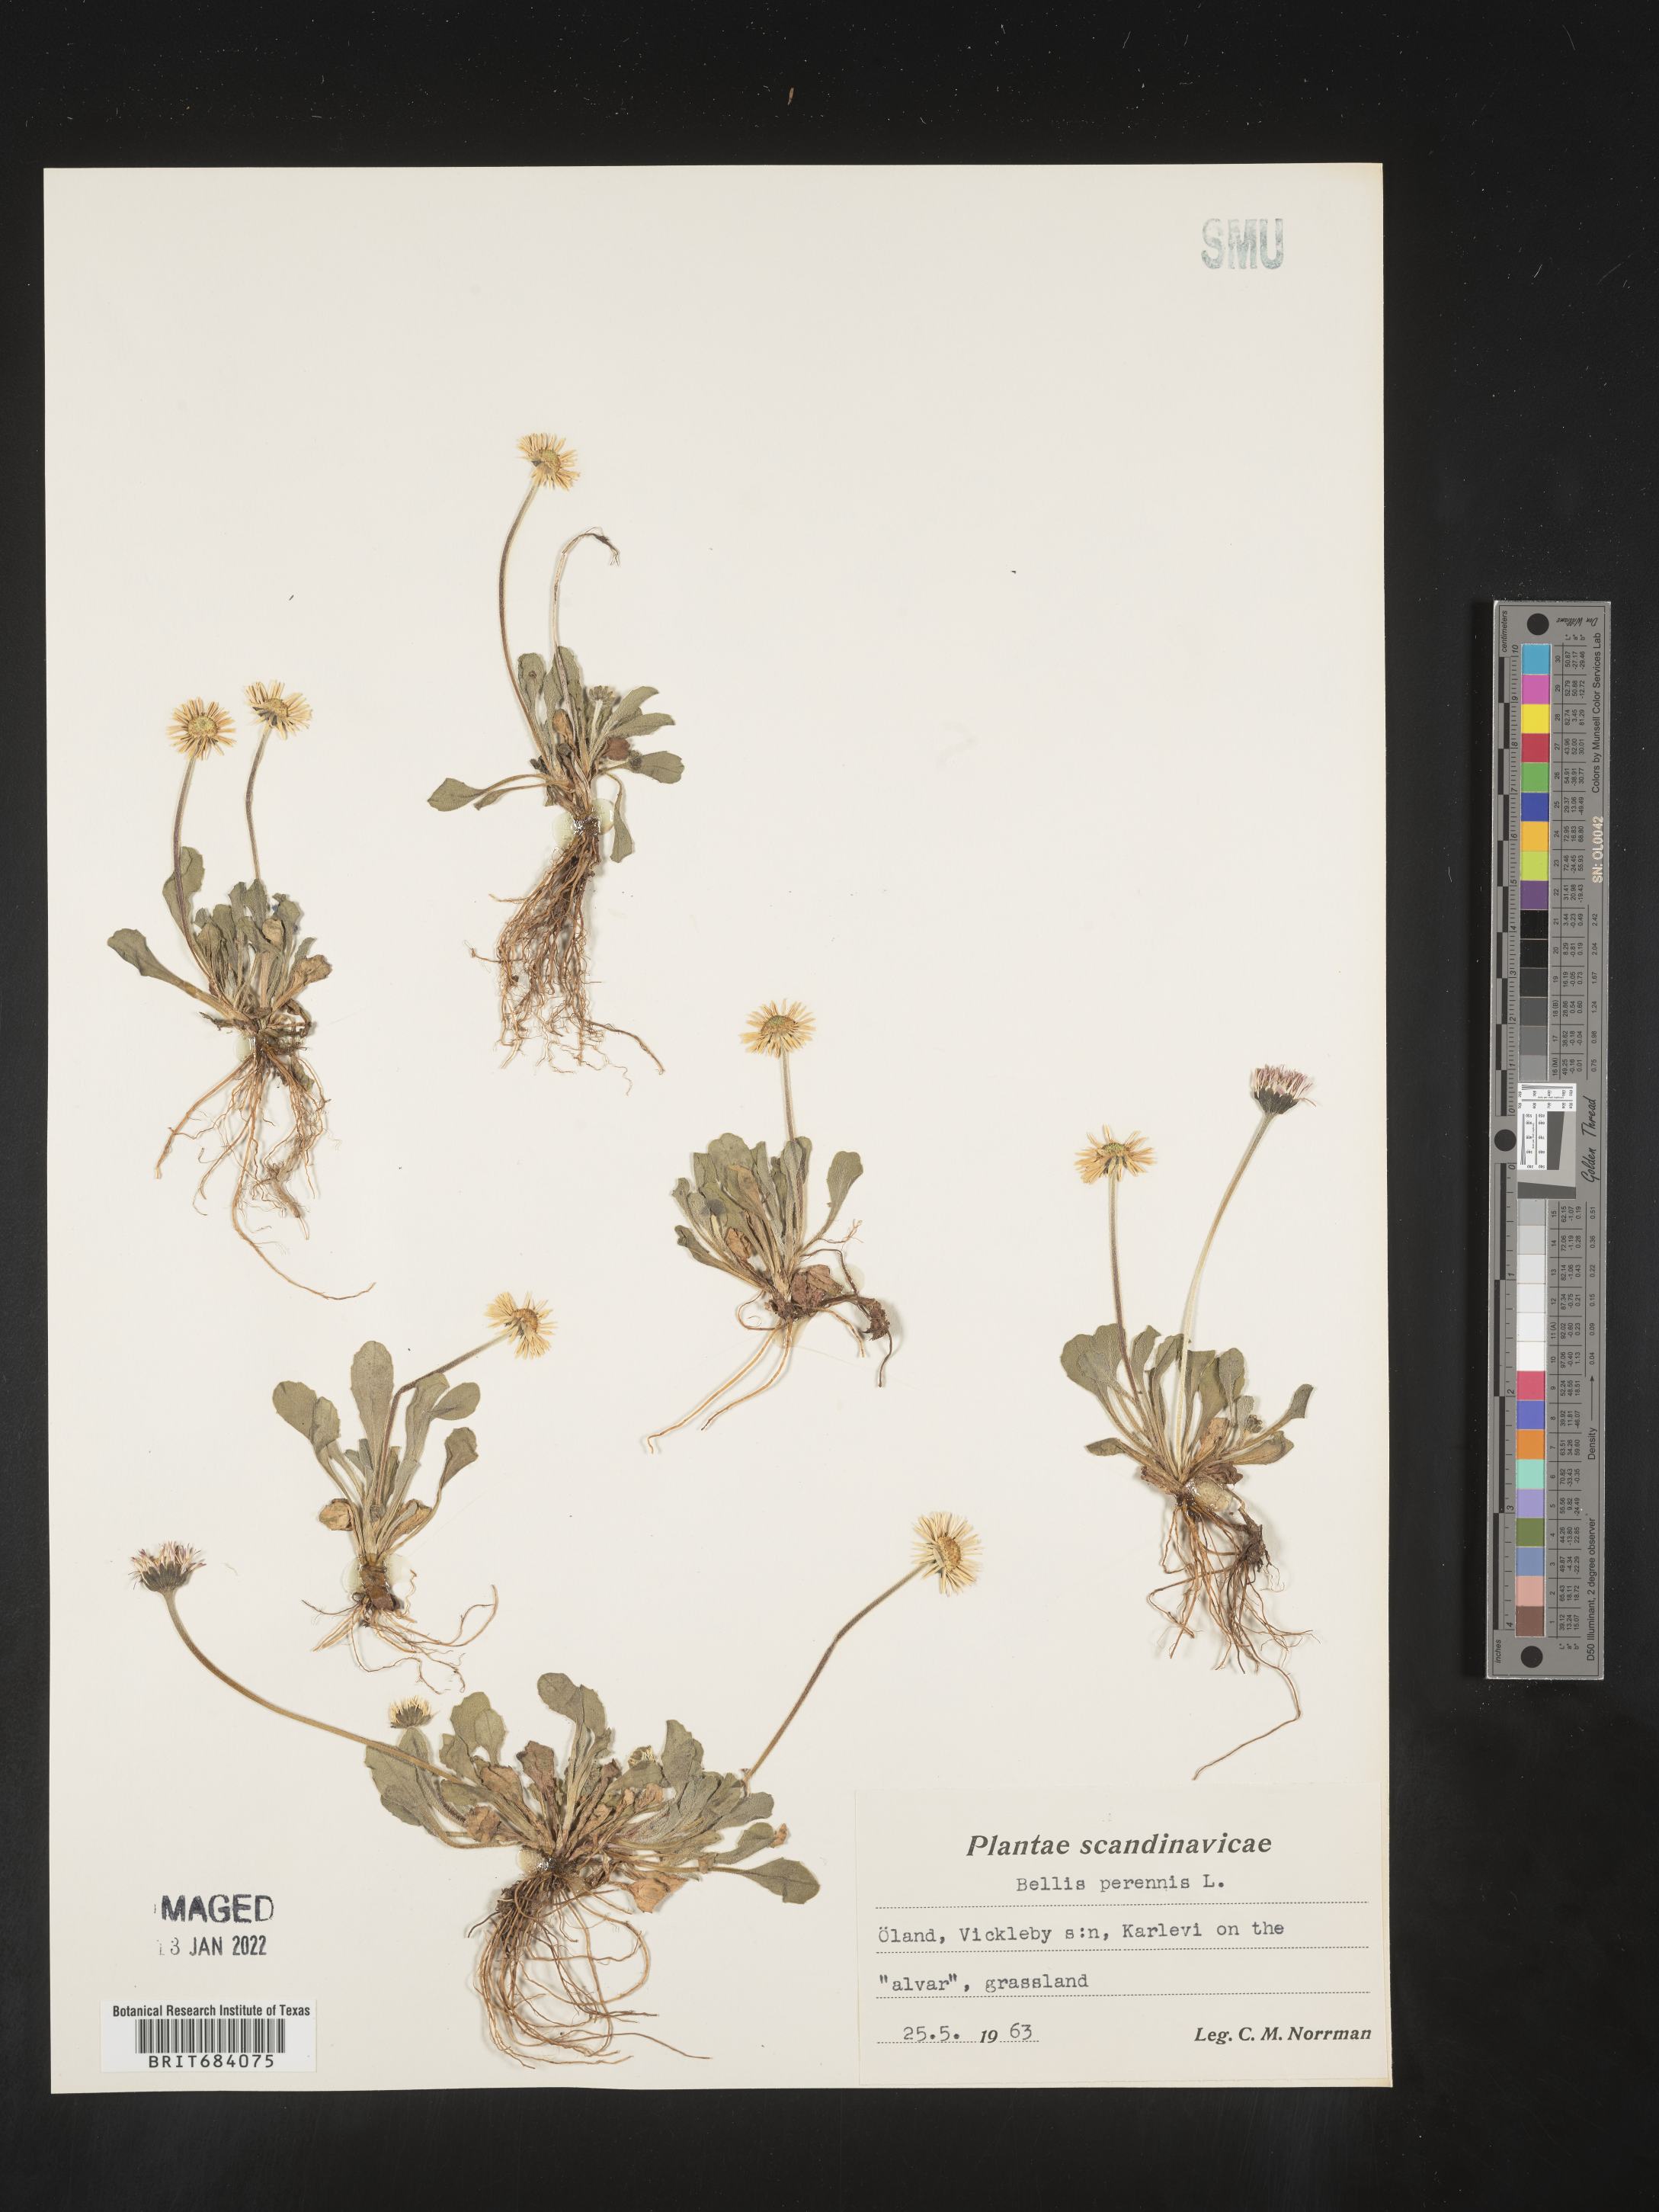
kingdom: Plantae
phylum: Tracheophyta
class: Magnoliopsida
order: Asterales
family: Asteraceae
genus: Bellis
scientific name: Bellis
